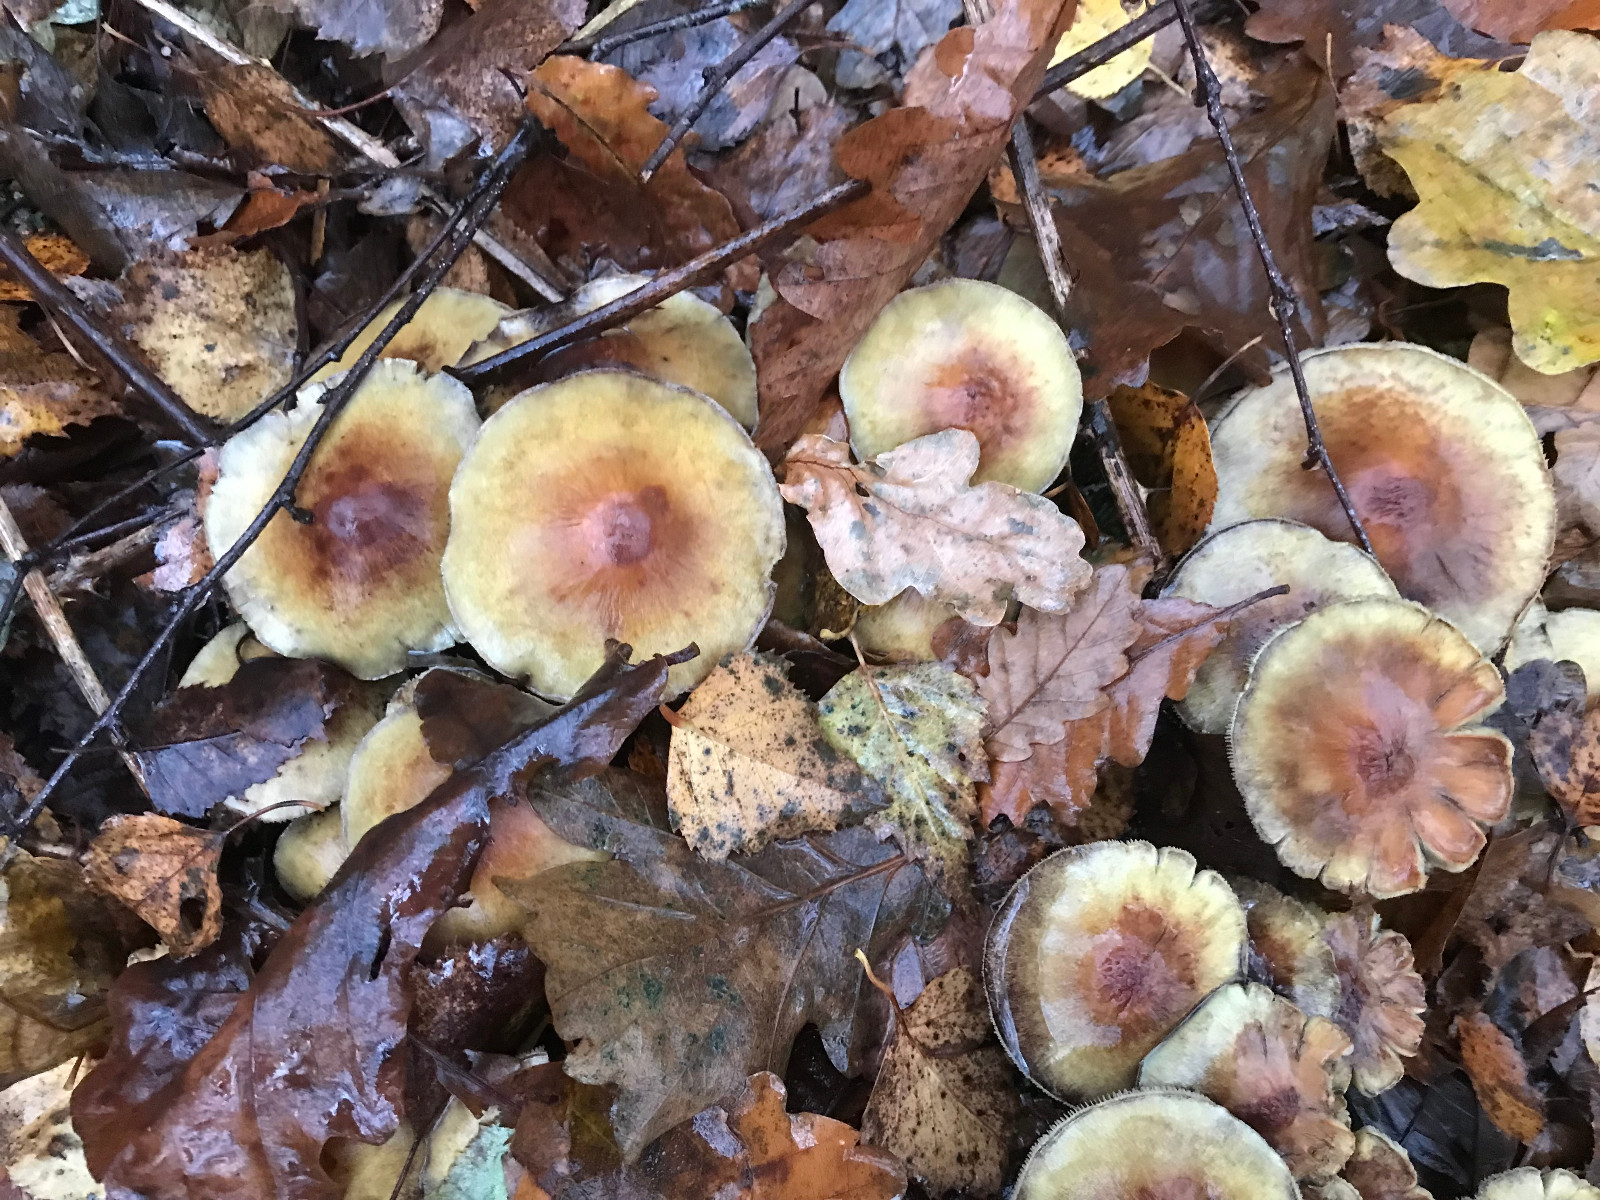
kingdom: Fungi
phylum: Basidiomycota
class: Agaricomycetes
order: Agaricales
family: Strophariaceae
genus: Hypholoma
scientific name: Hypholoma fasciculare
